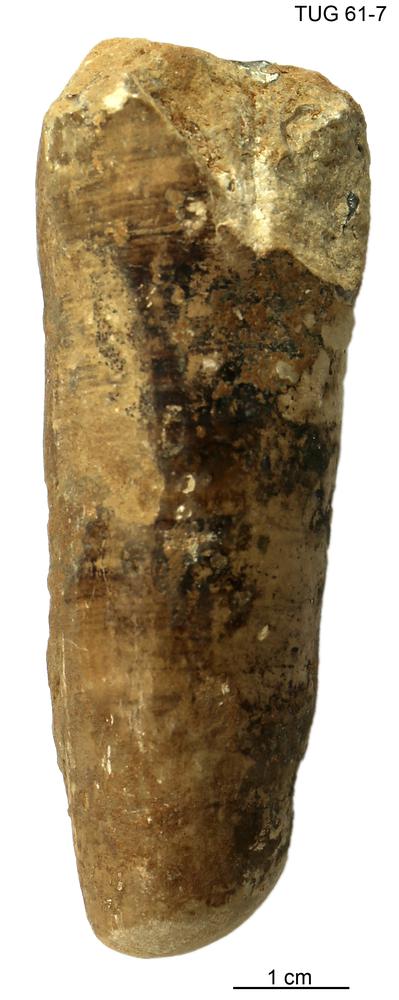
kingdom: Animalia
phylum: Mollusca
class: Cephalopoda
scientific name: Cephalopoda
